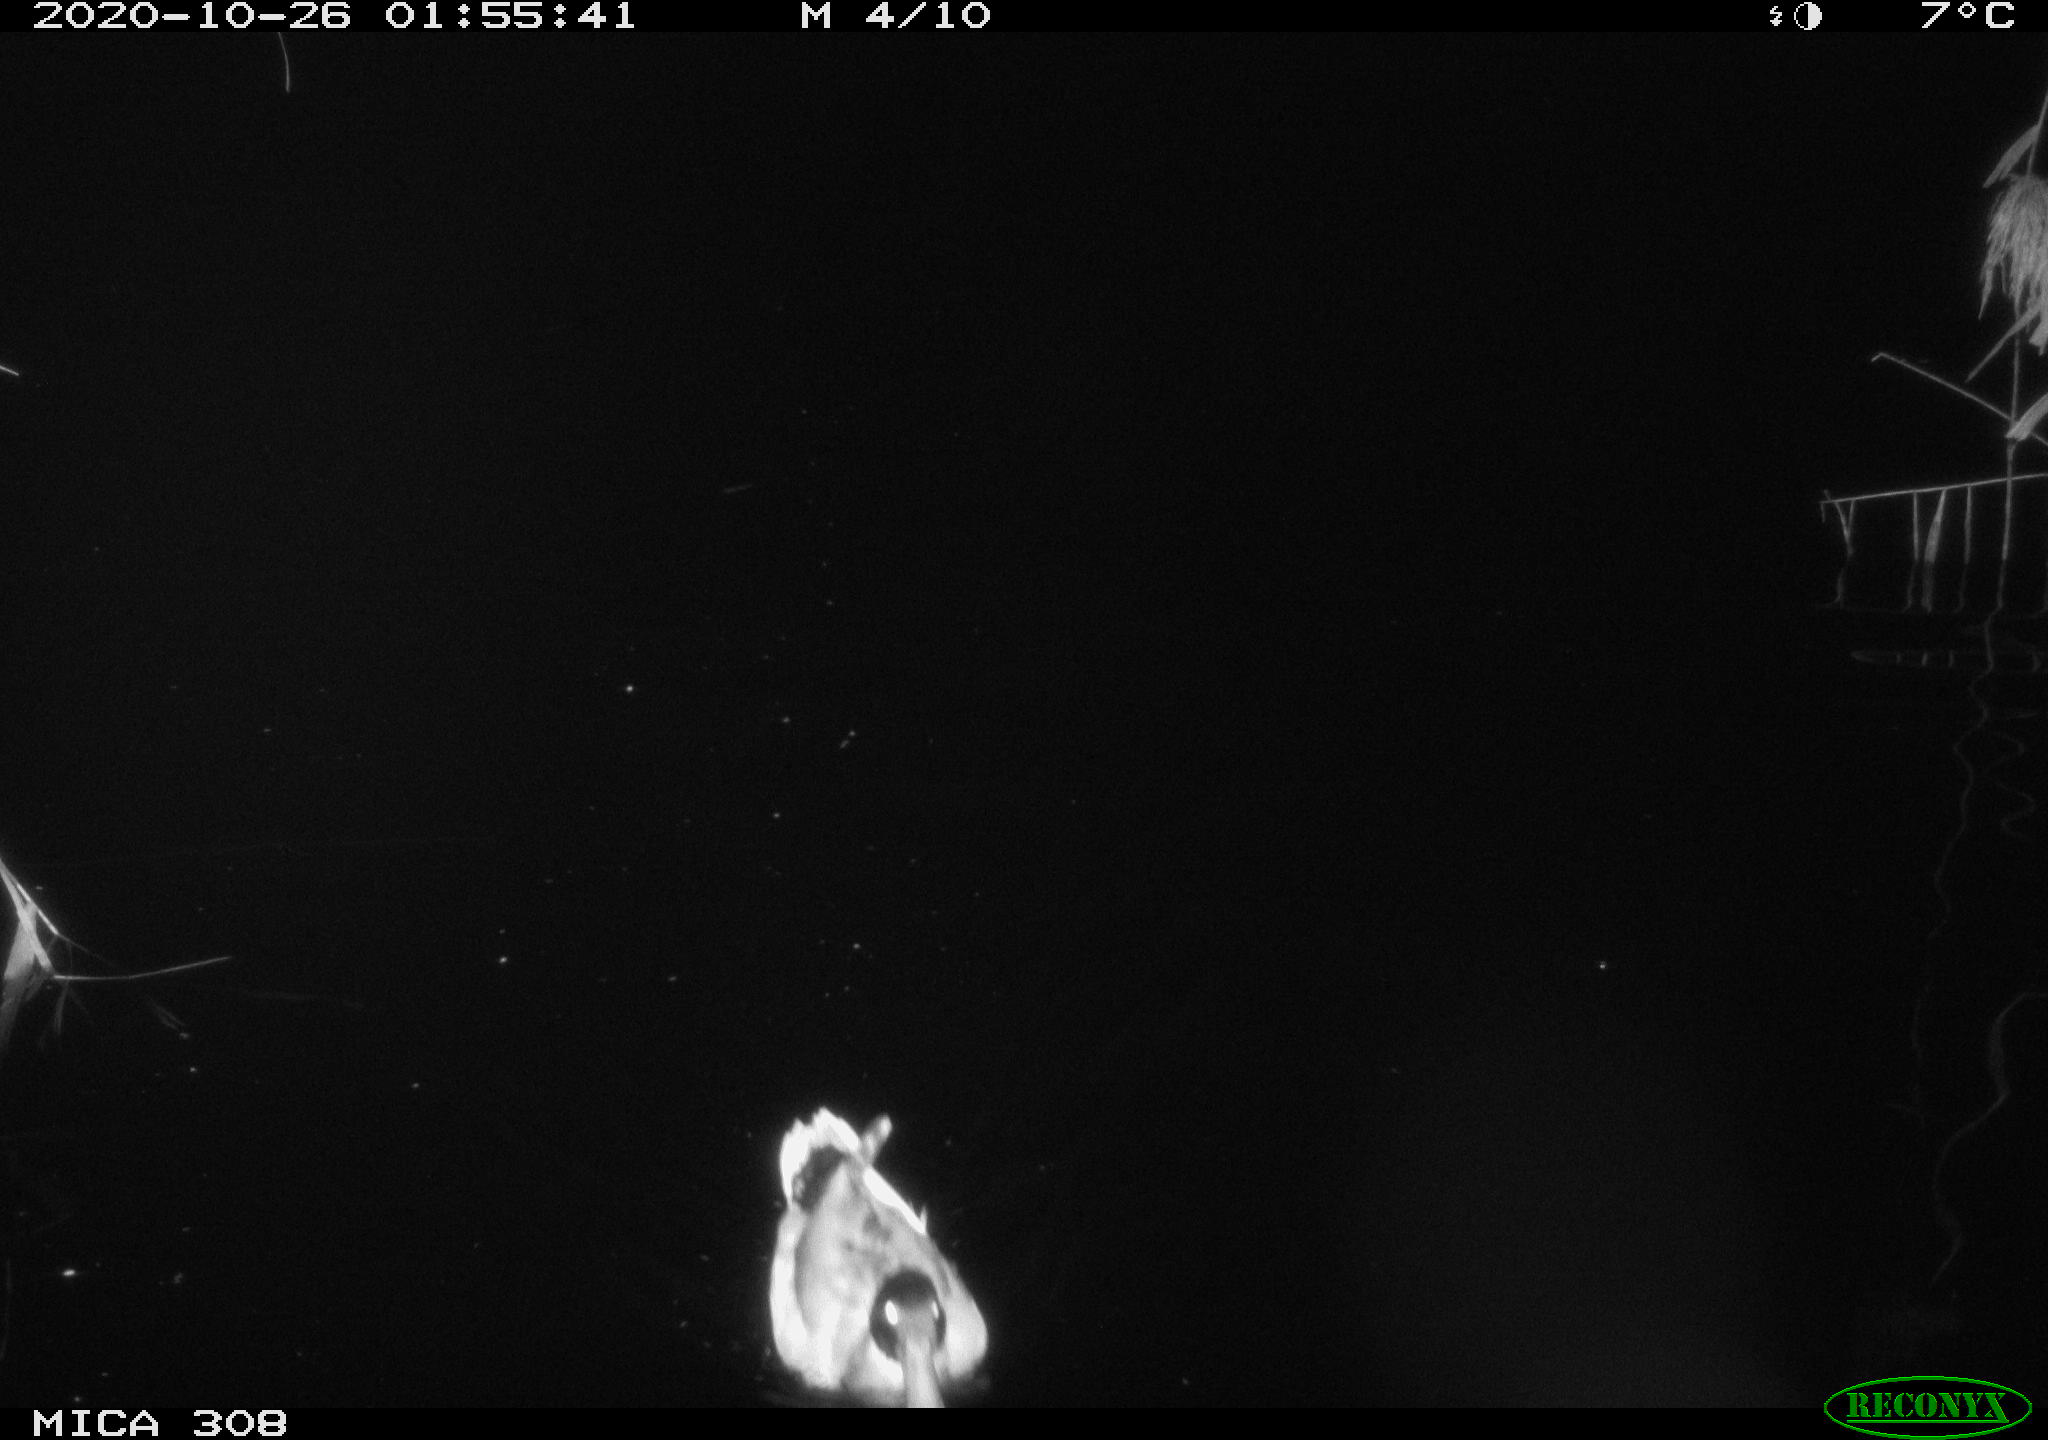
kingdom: Animalia
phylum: Chordata
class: Aves
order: Anseriformes
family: Anatidae
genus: Anas
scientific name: Anas platyrhynchos
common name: Mallard
